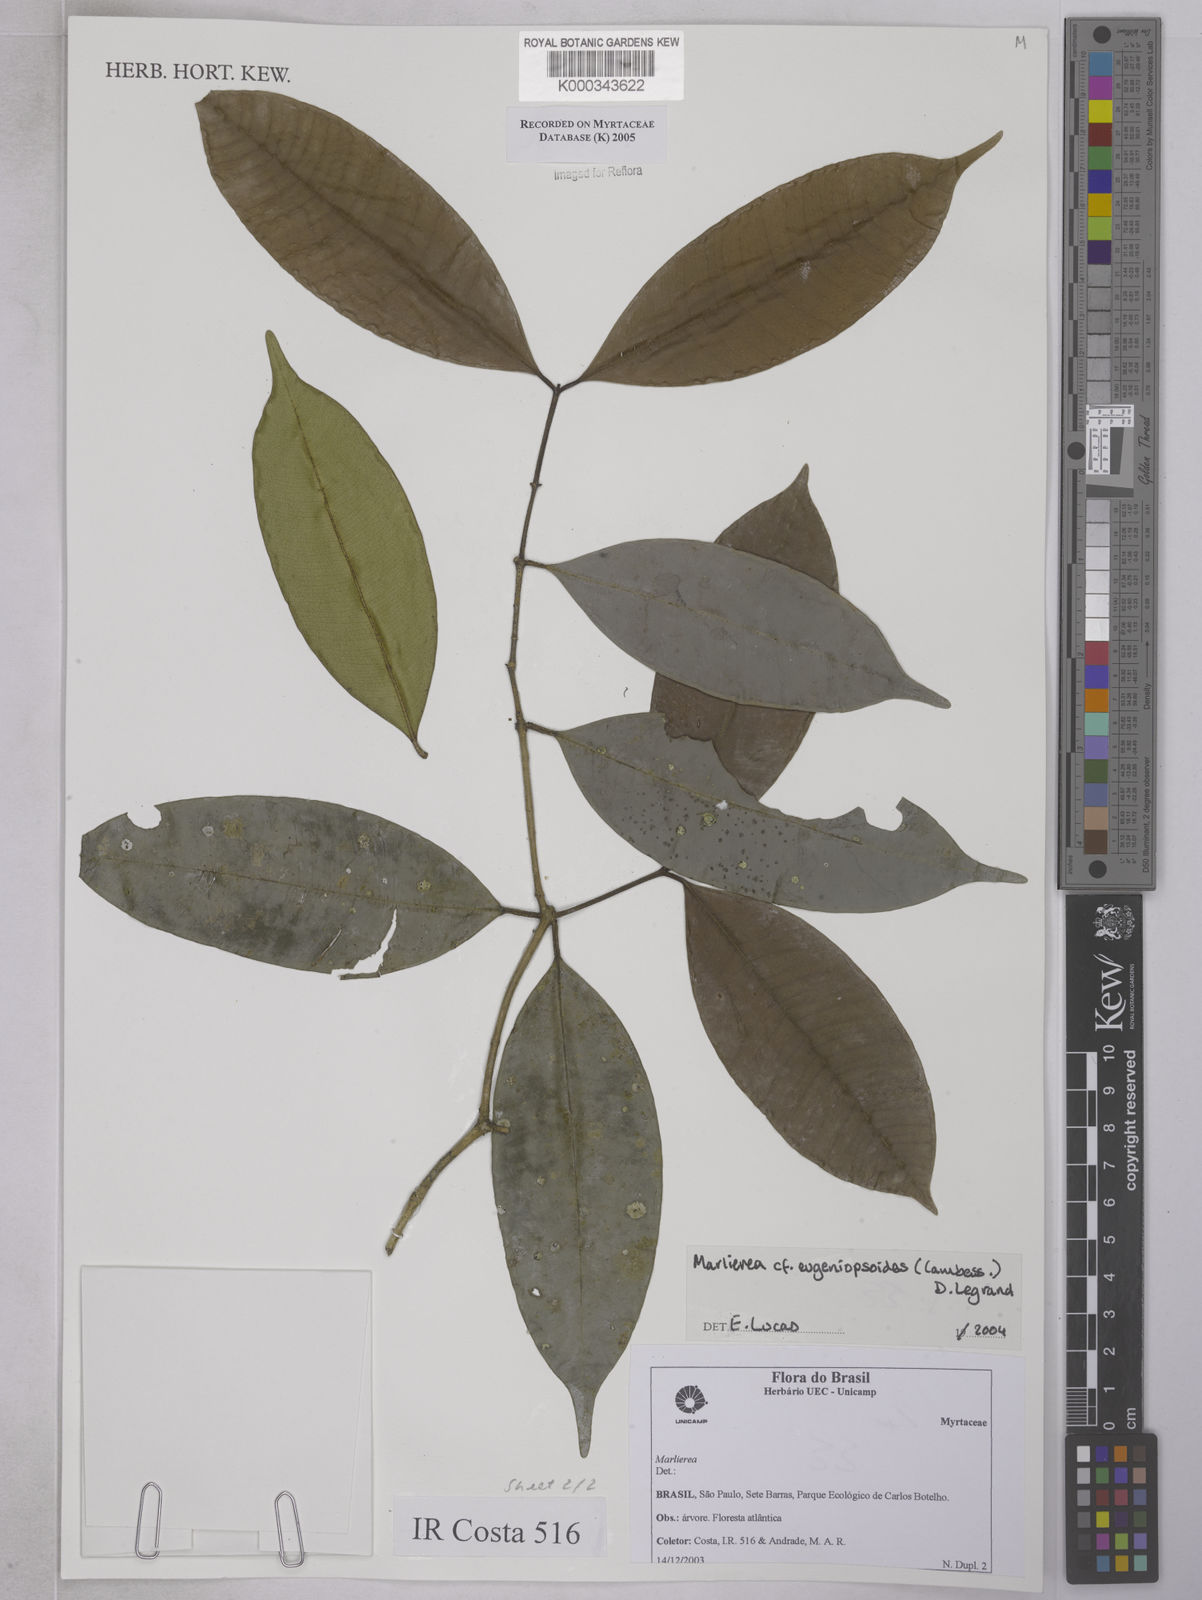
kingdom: Plantae
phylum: Tracheophyta
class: Magnoliopsida
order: Myrtales
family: Myrtaceae
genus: Myrcia
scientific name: Myrcia eugeniopsoides
